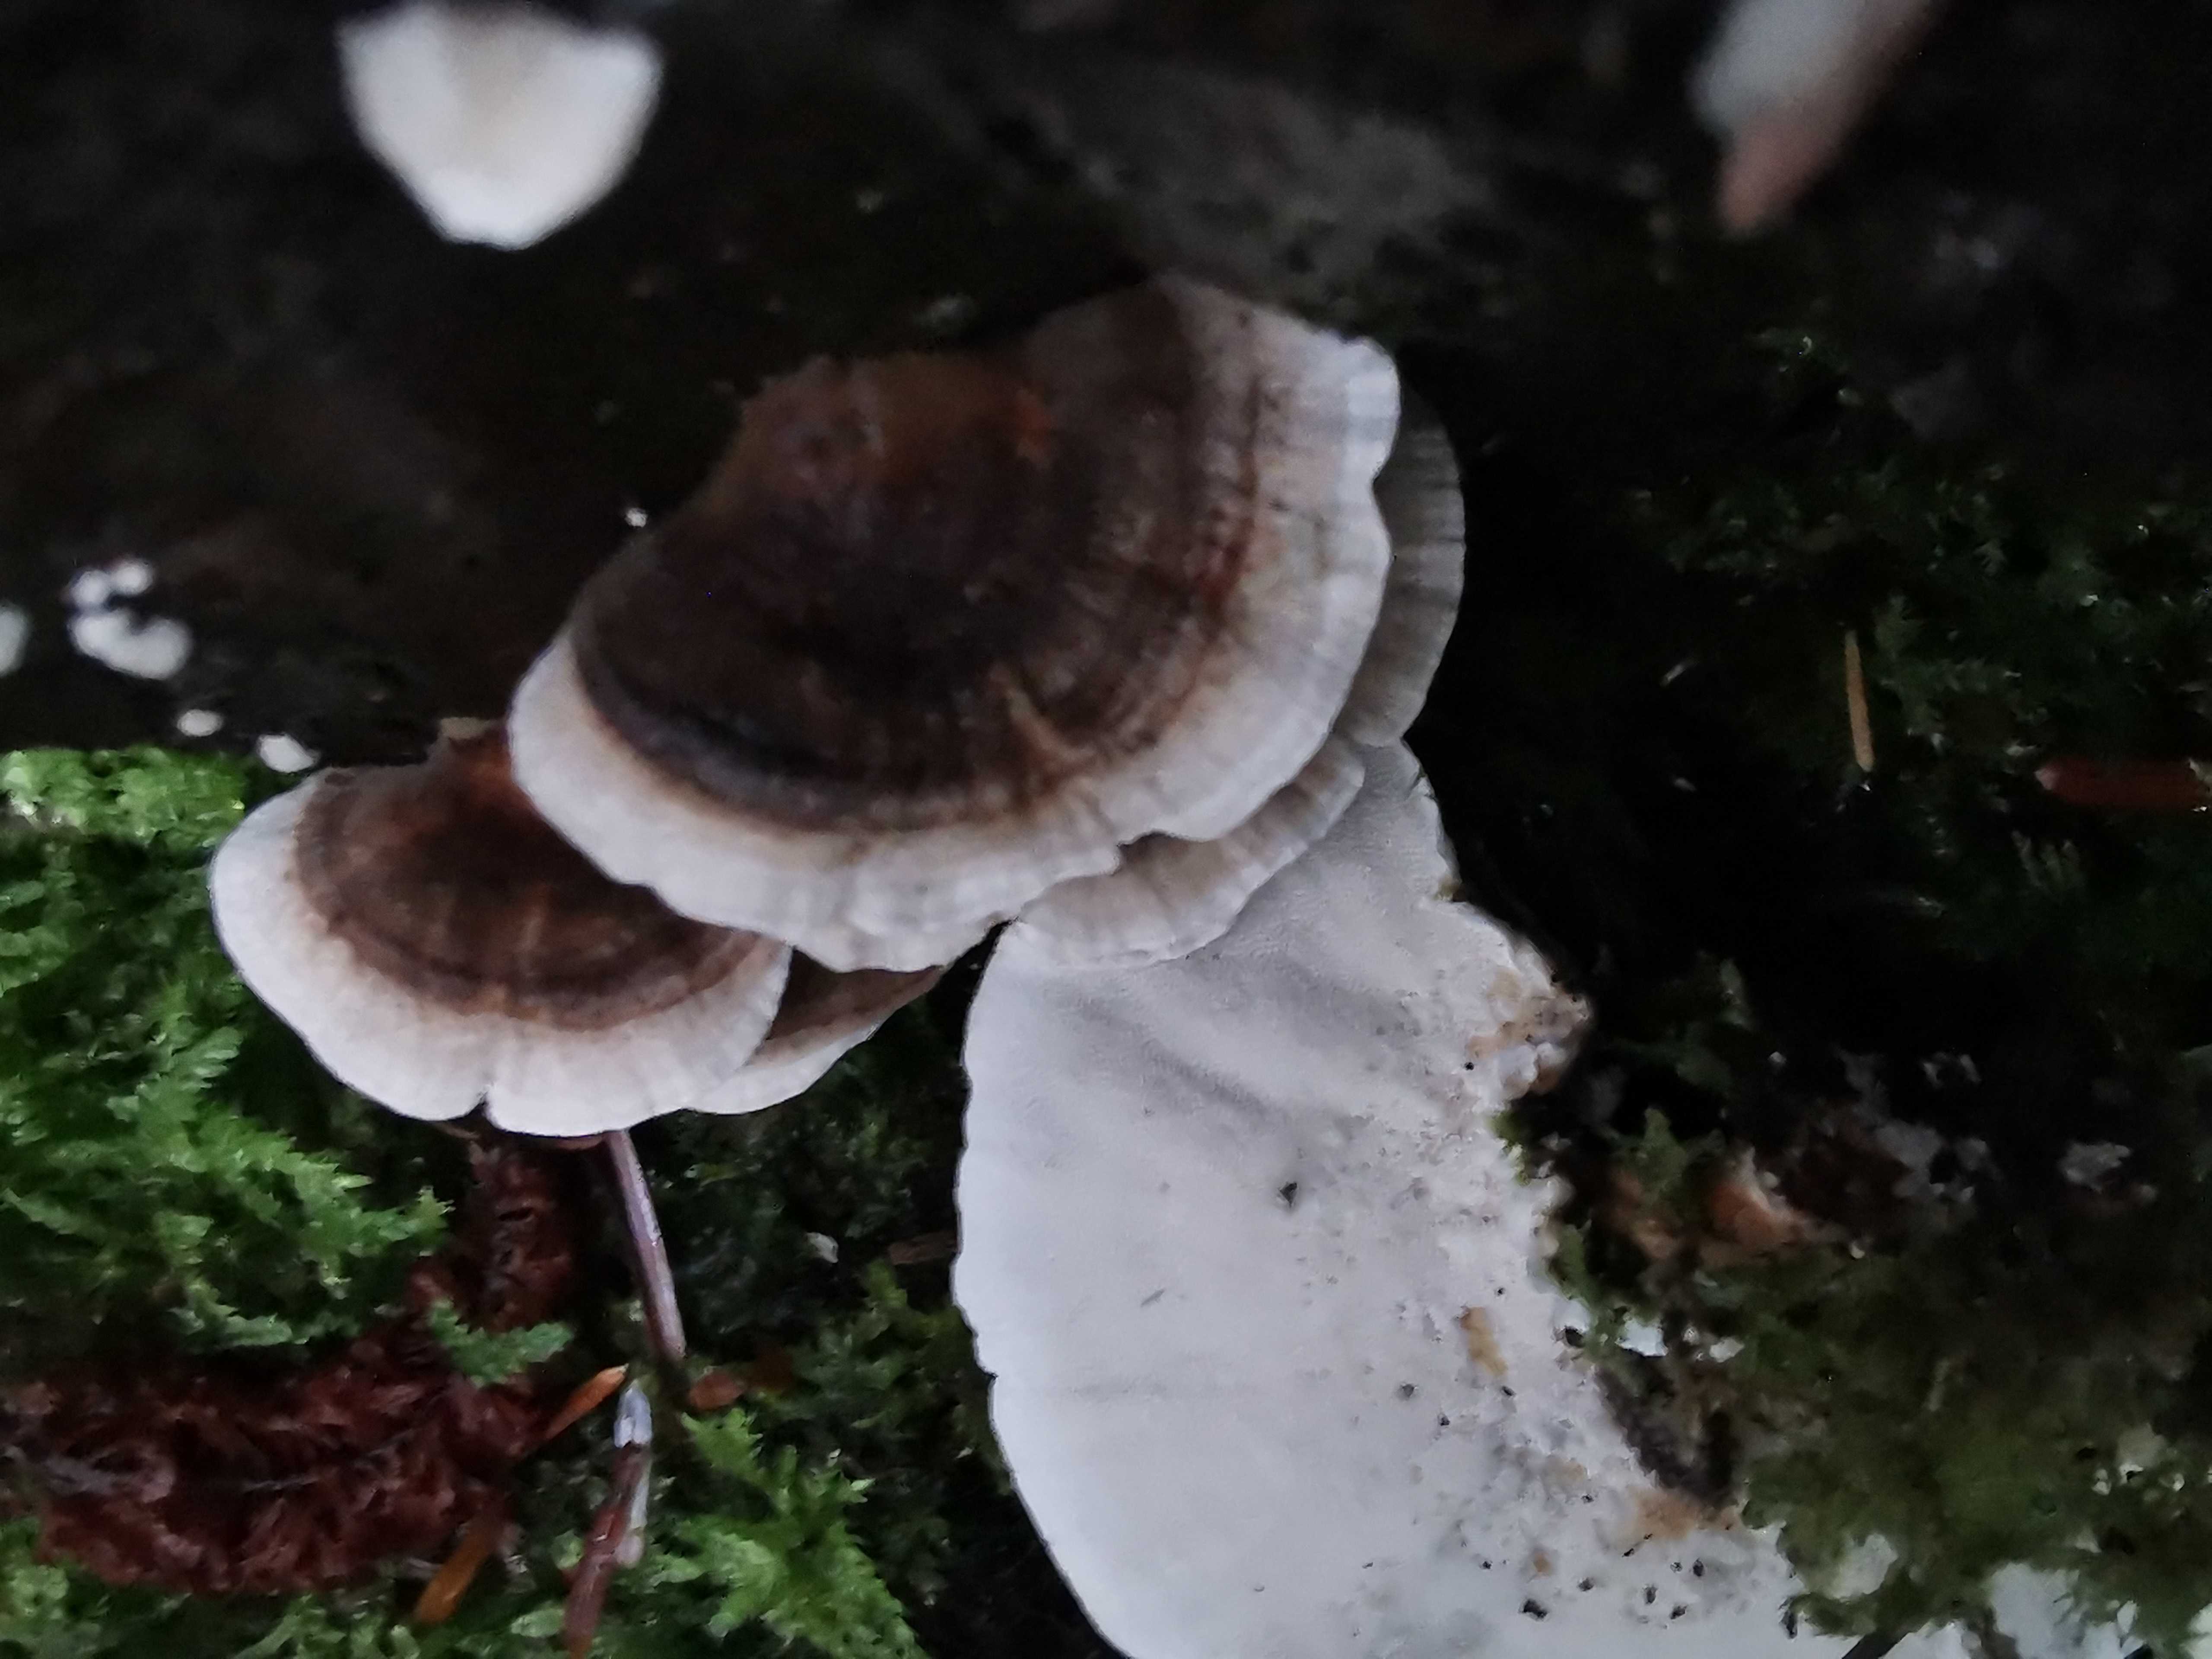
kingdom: Fungi
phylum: Basidiomycota
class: Agaricomycetes
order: Polyporales
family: Polyporaceae
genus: Trametes
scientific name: Trametes versicolor
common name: broget læderporesvamp
